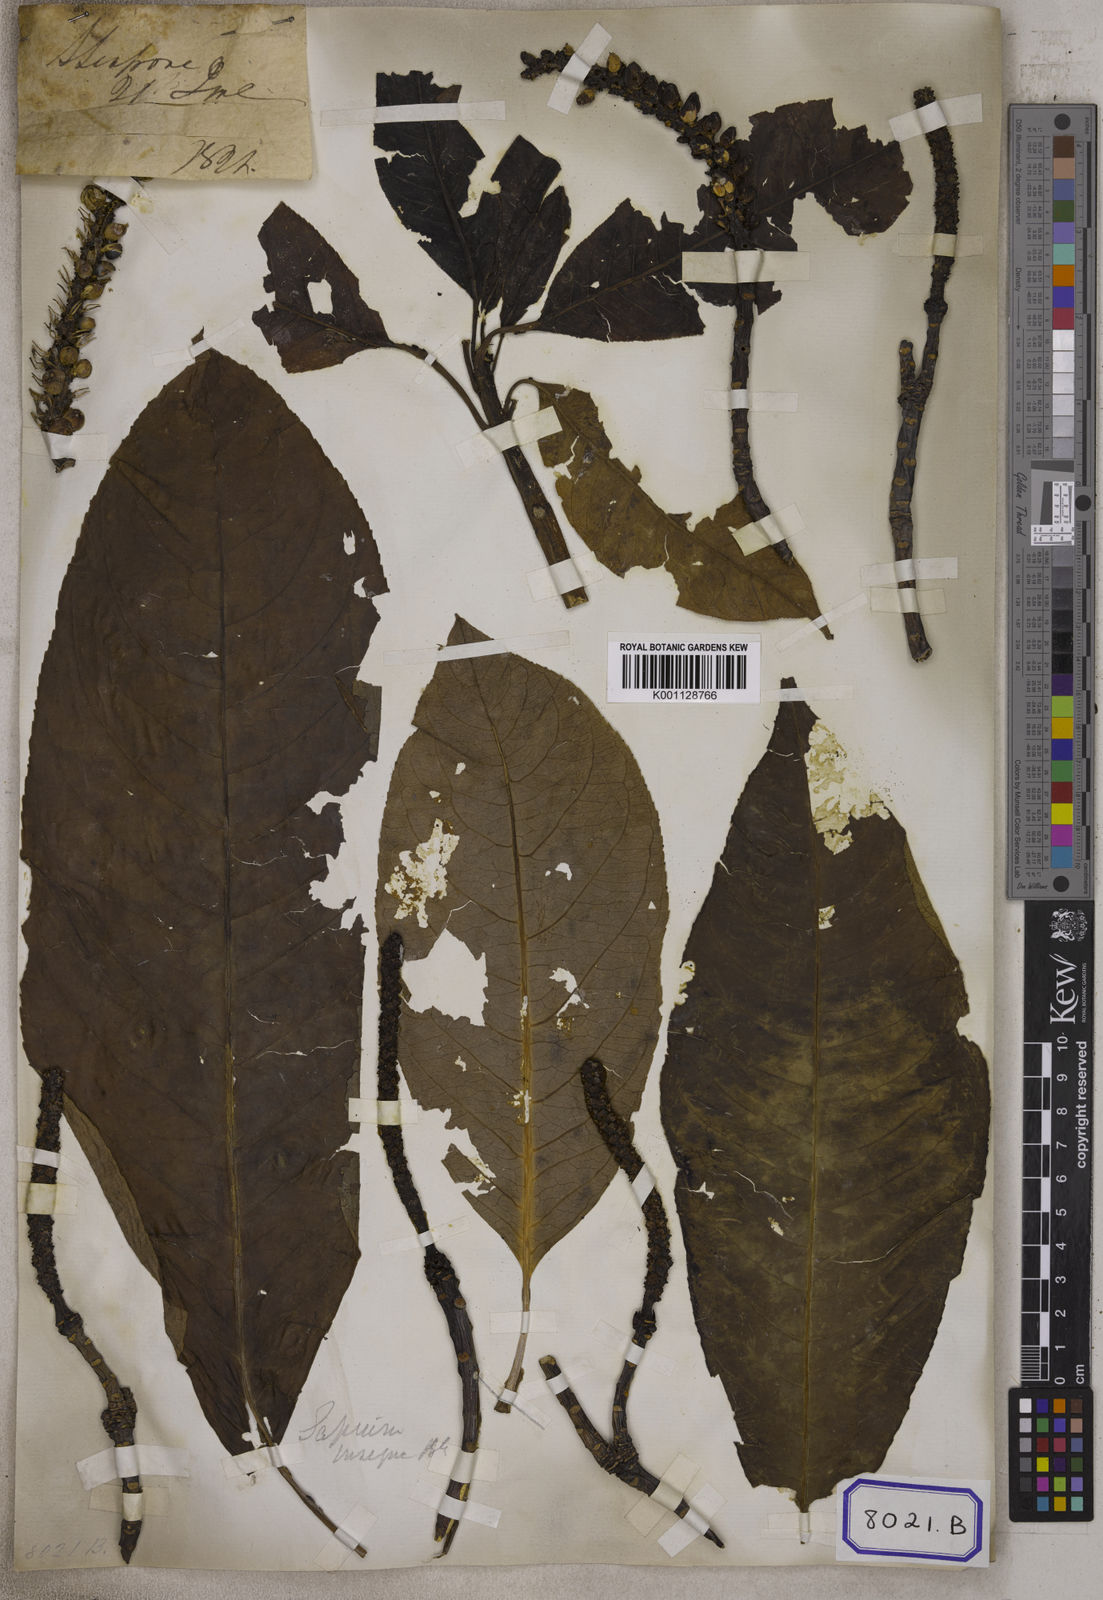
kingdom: Plantae
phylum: Tracheophyta
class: Magnoliopsida
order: Malpighiales
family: Euphorbiaceae
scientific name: Euphorbiaceae
